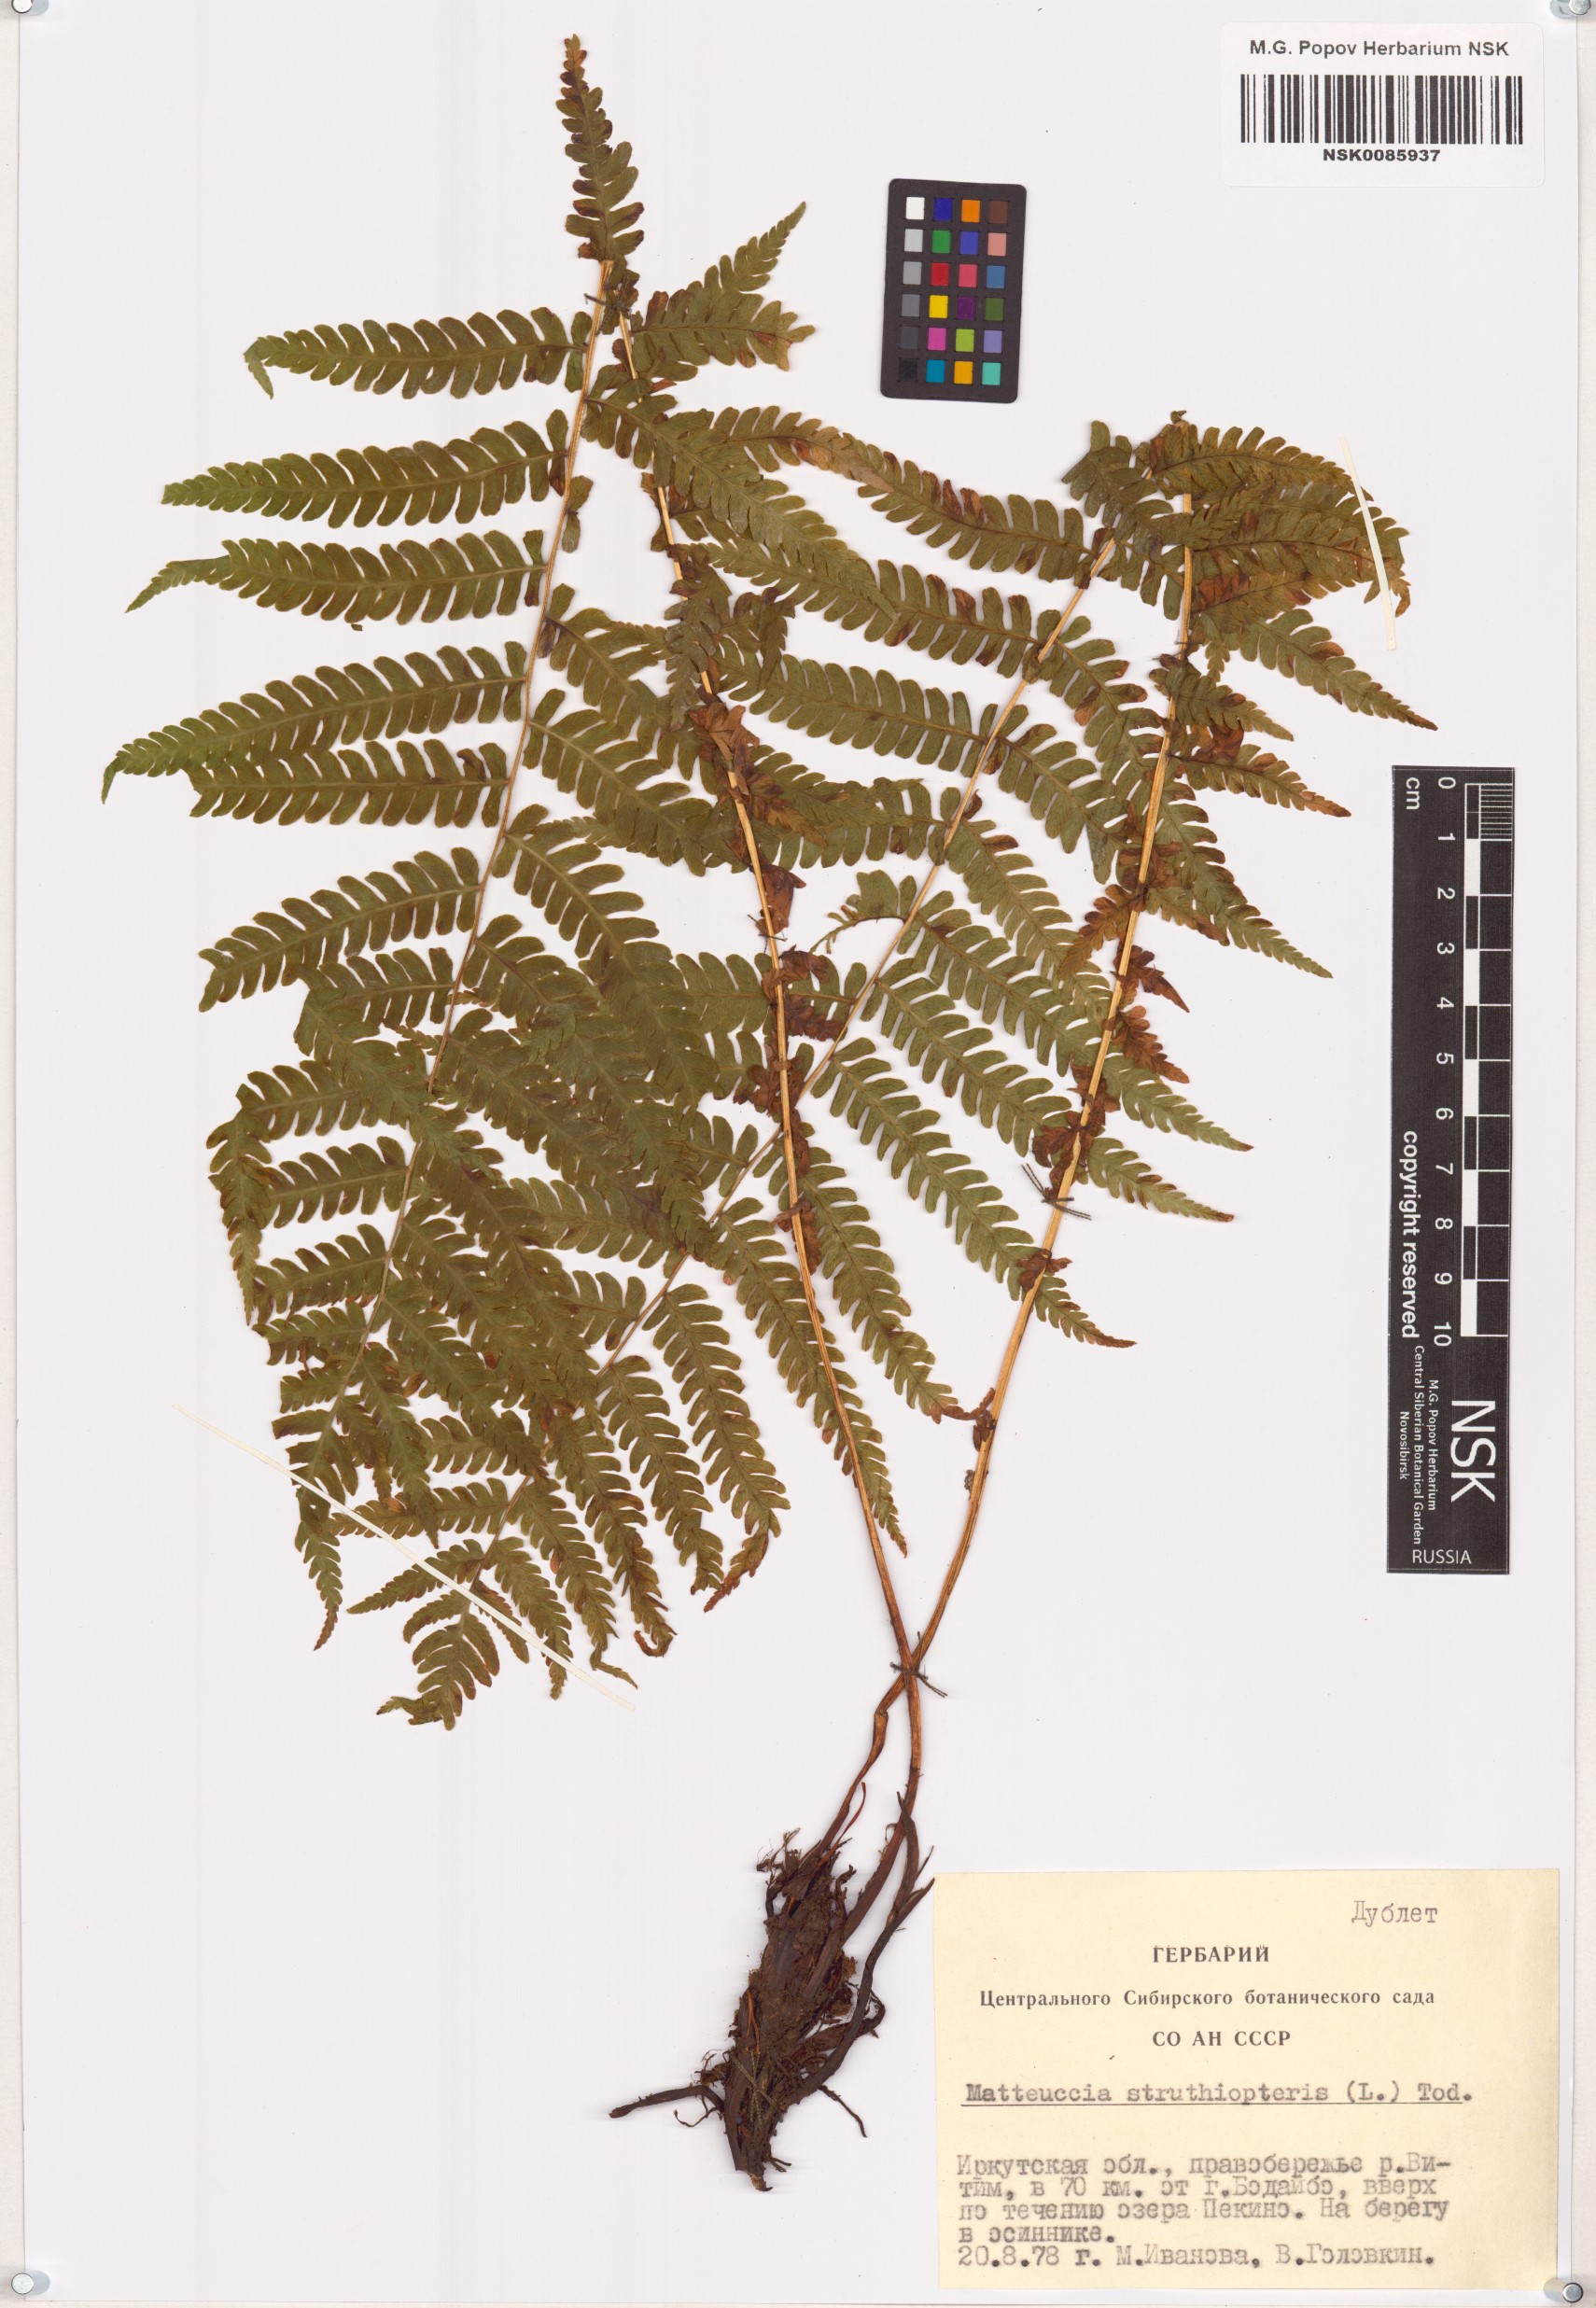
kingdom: Plantae
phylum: Tracheophyta
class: Polypodiopsida
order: Polypodiales
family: Onocleaceae
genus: Matteuccia
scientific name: Matteuccia struthiopteris
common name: Ostrich fern
